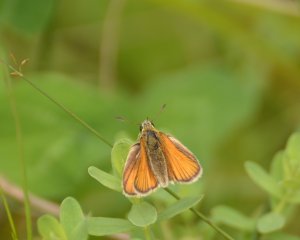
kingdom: Animalia
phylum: Arthropoda
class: Insecta
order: Lepidoptera
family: Hesperiidae
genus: Thymelicus
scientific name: Thymelicus lineola
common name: European Skipper
